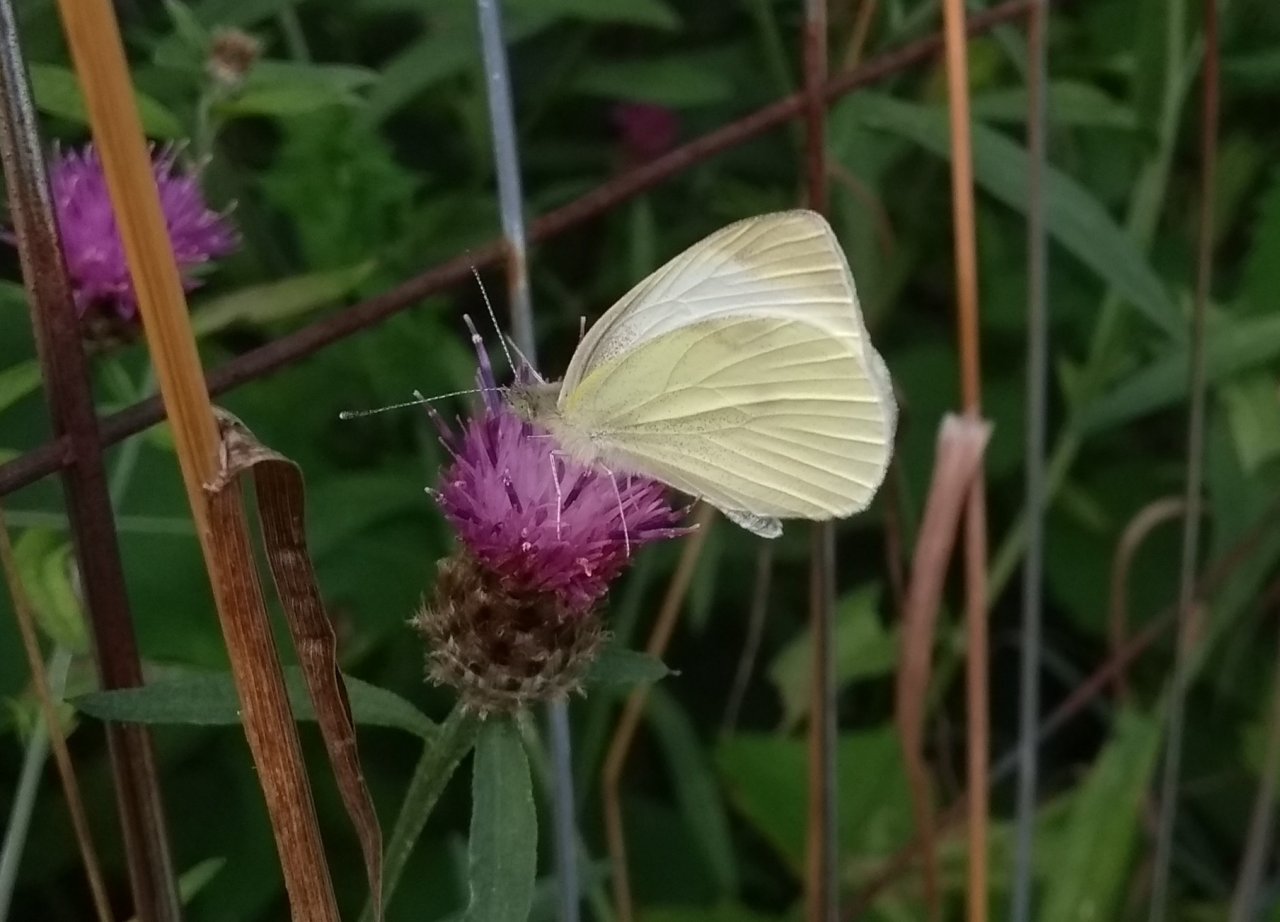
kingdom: Animalia
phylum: Arthropoda
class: Insecta
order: Lepidoptera
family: Pieridae
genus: Pieris
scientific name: Pieris rapae
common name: Cabbage White
